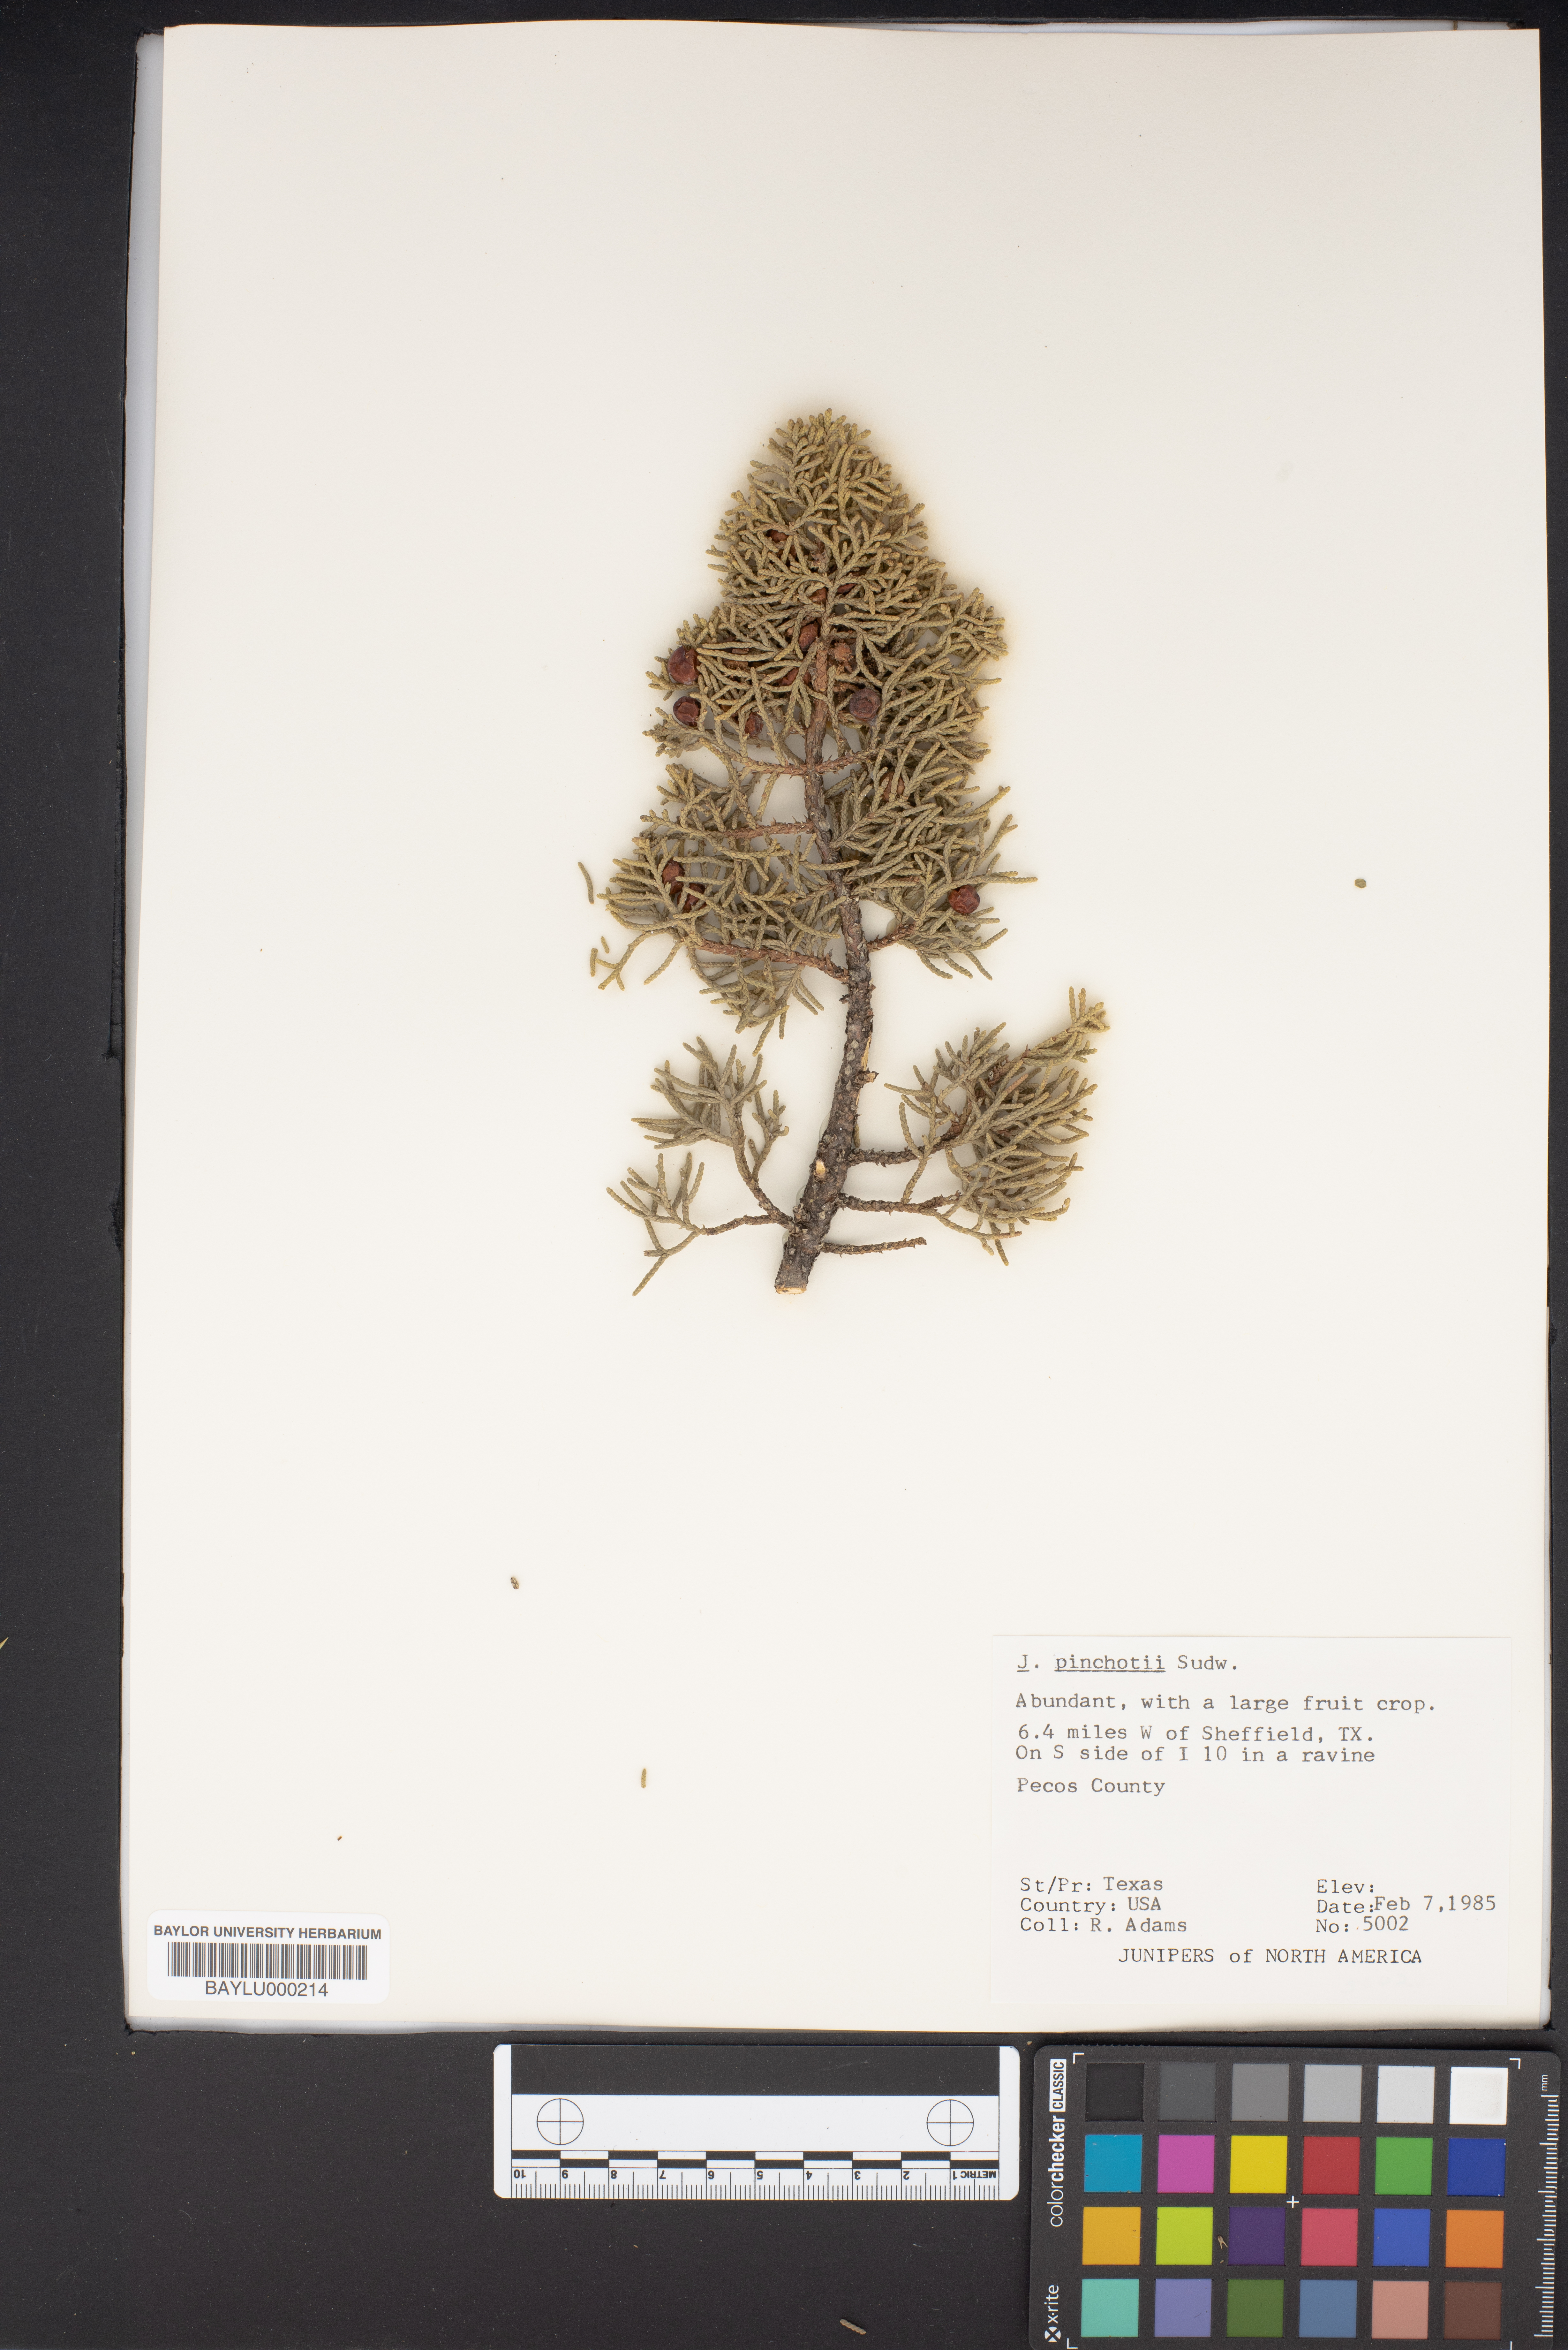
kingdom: Plantae
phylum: Tracheophyta
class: Pinopsida
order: Pinales
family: Cupressaceae
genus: Juniperus
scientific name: Juniperus pinchotii
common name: Pinchot juniper
